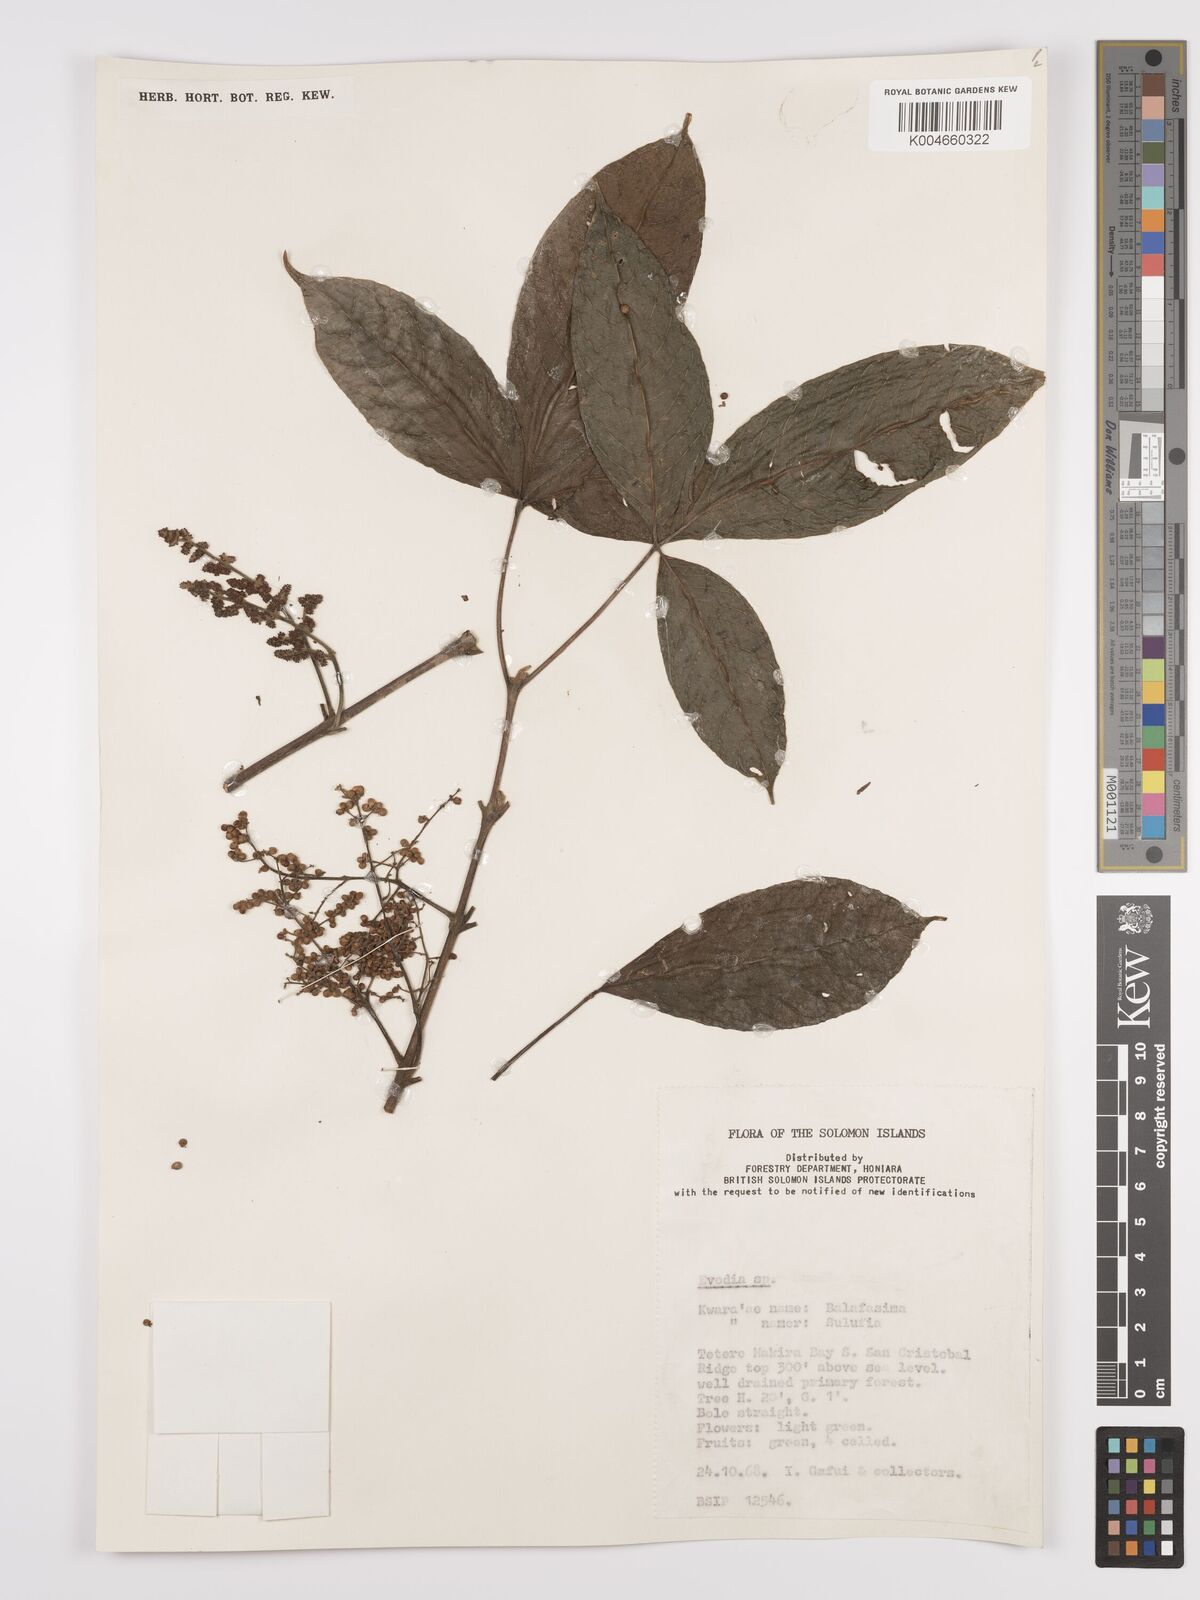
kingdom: Plantae
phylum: Tracheophyta
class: Magnoliopsida
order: Sapindales
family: Rutaceae
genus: Euodia
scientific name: Euodia
